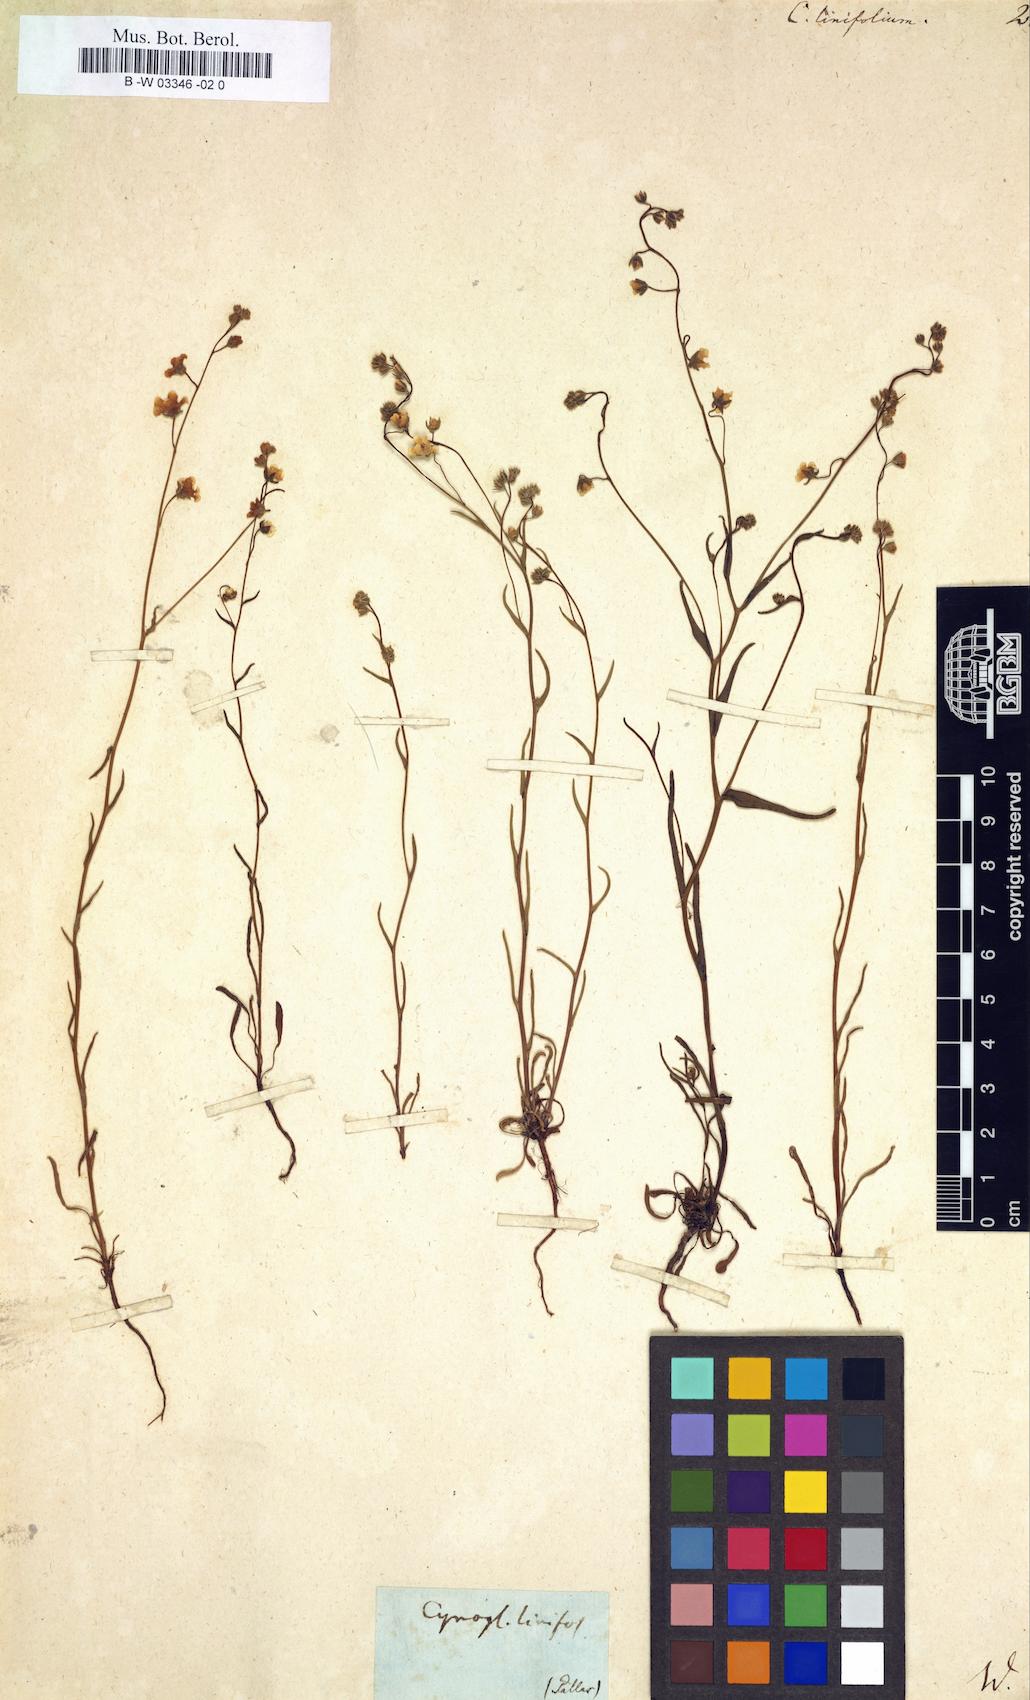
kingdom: Plantae
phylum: Tracheophyta
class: Magnoliopsida
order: Boraginales
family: Boraginaceae
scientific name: Boraginaceae
